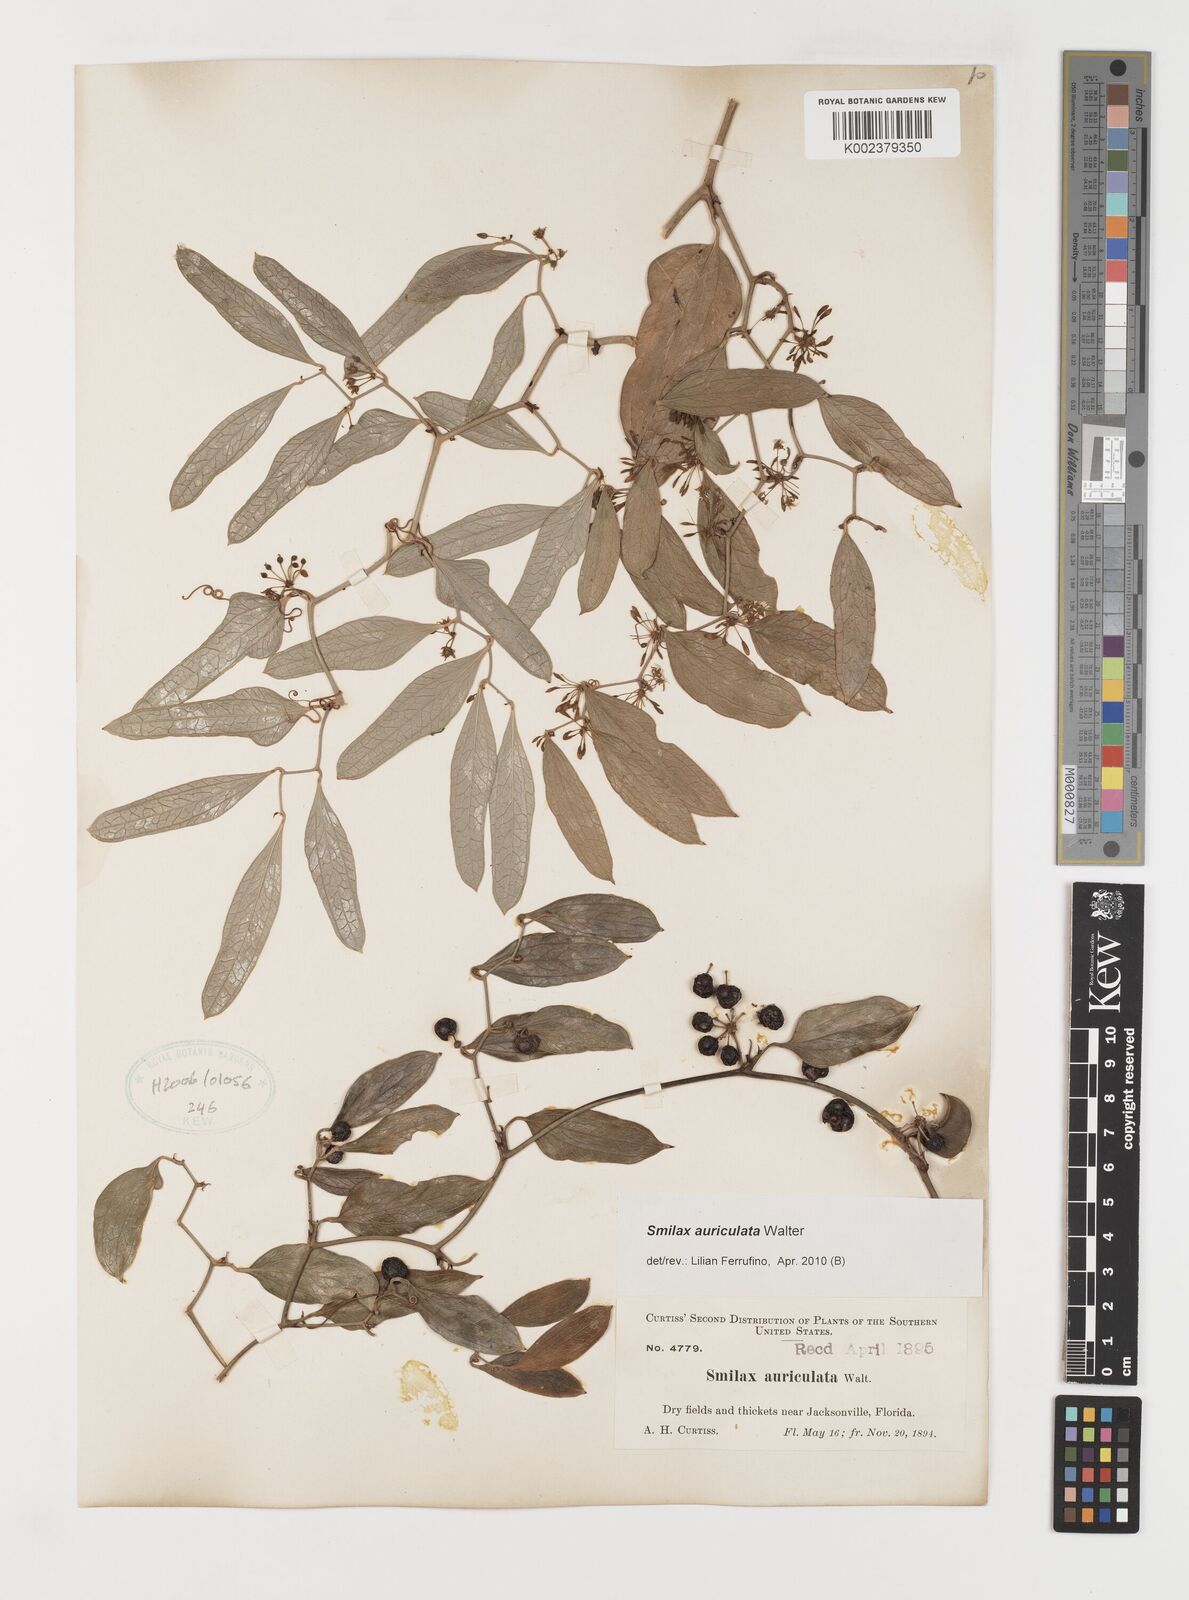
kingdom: Plantae
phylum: Tracheophyta
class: Liliopsida
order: Liliales
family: Smilacaceae
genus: Smilax
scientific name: Smilax auriculata
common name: Wild bamboo
